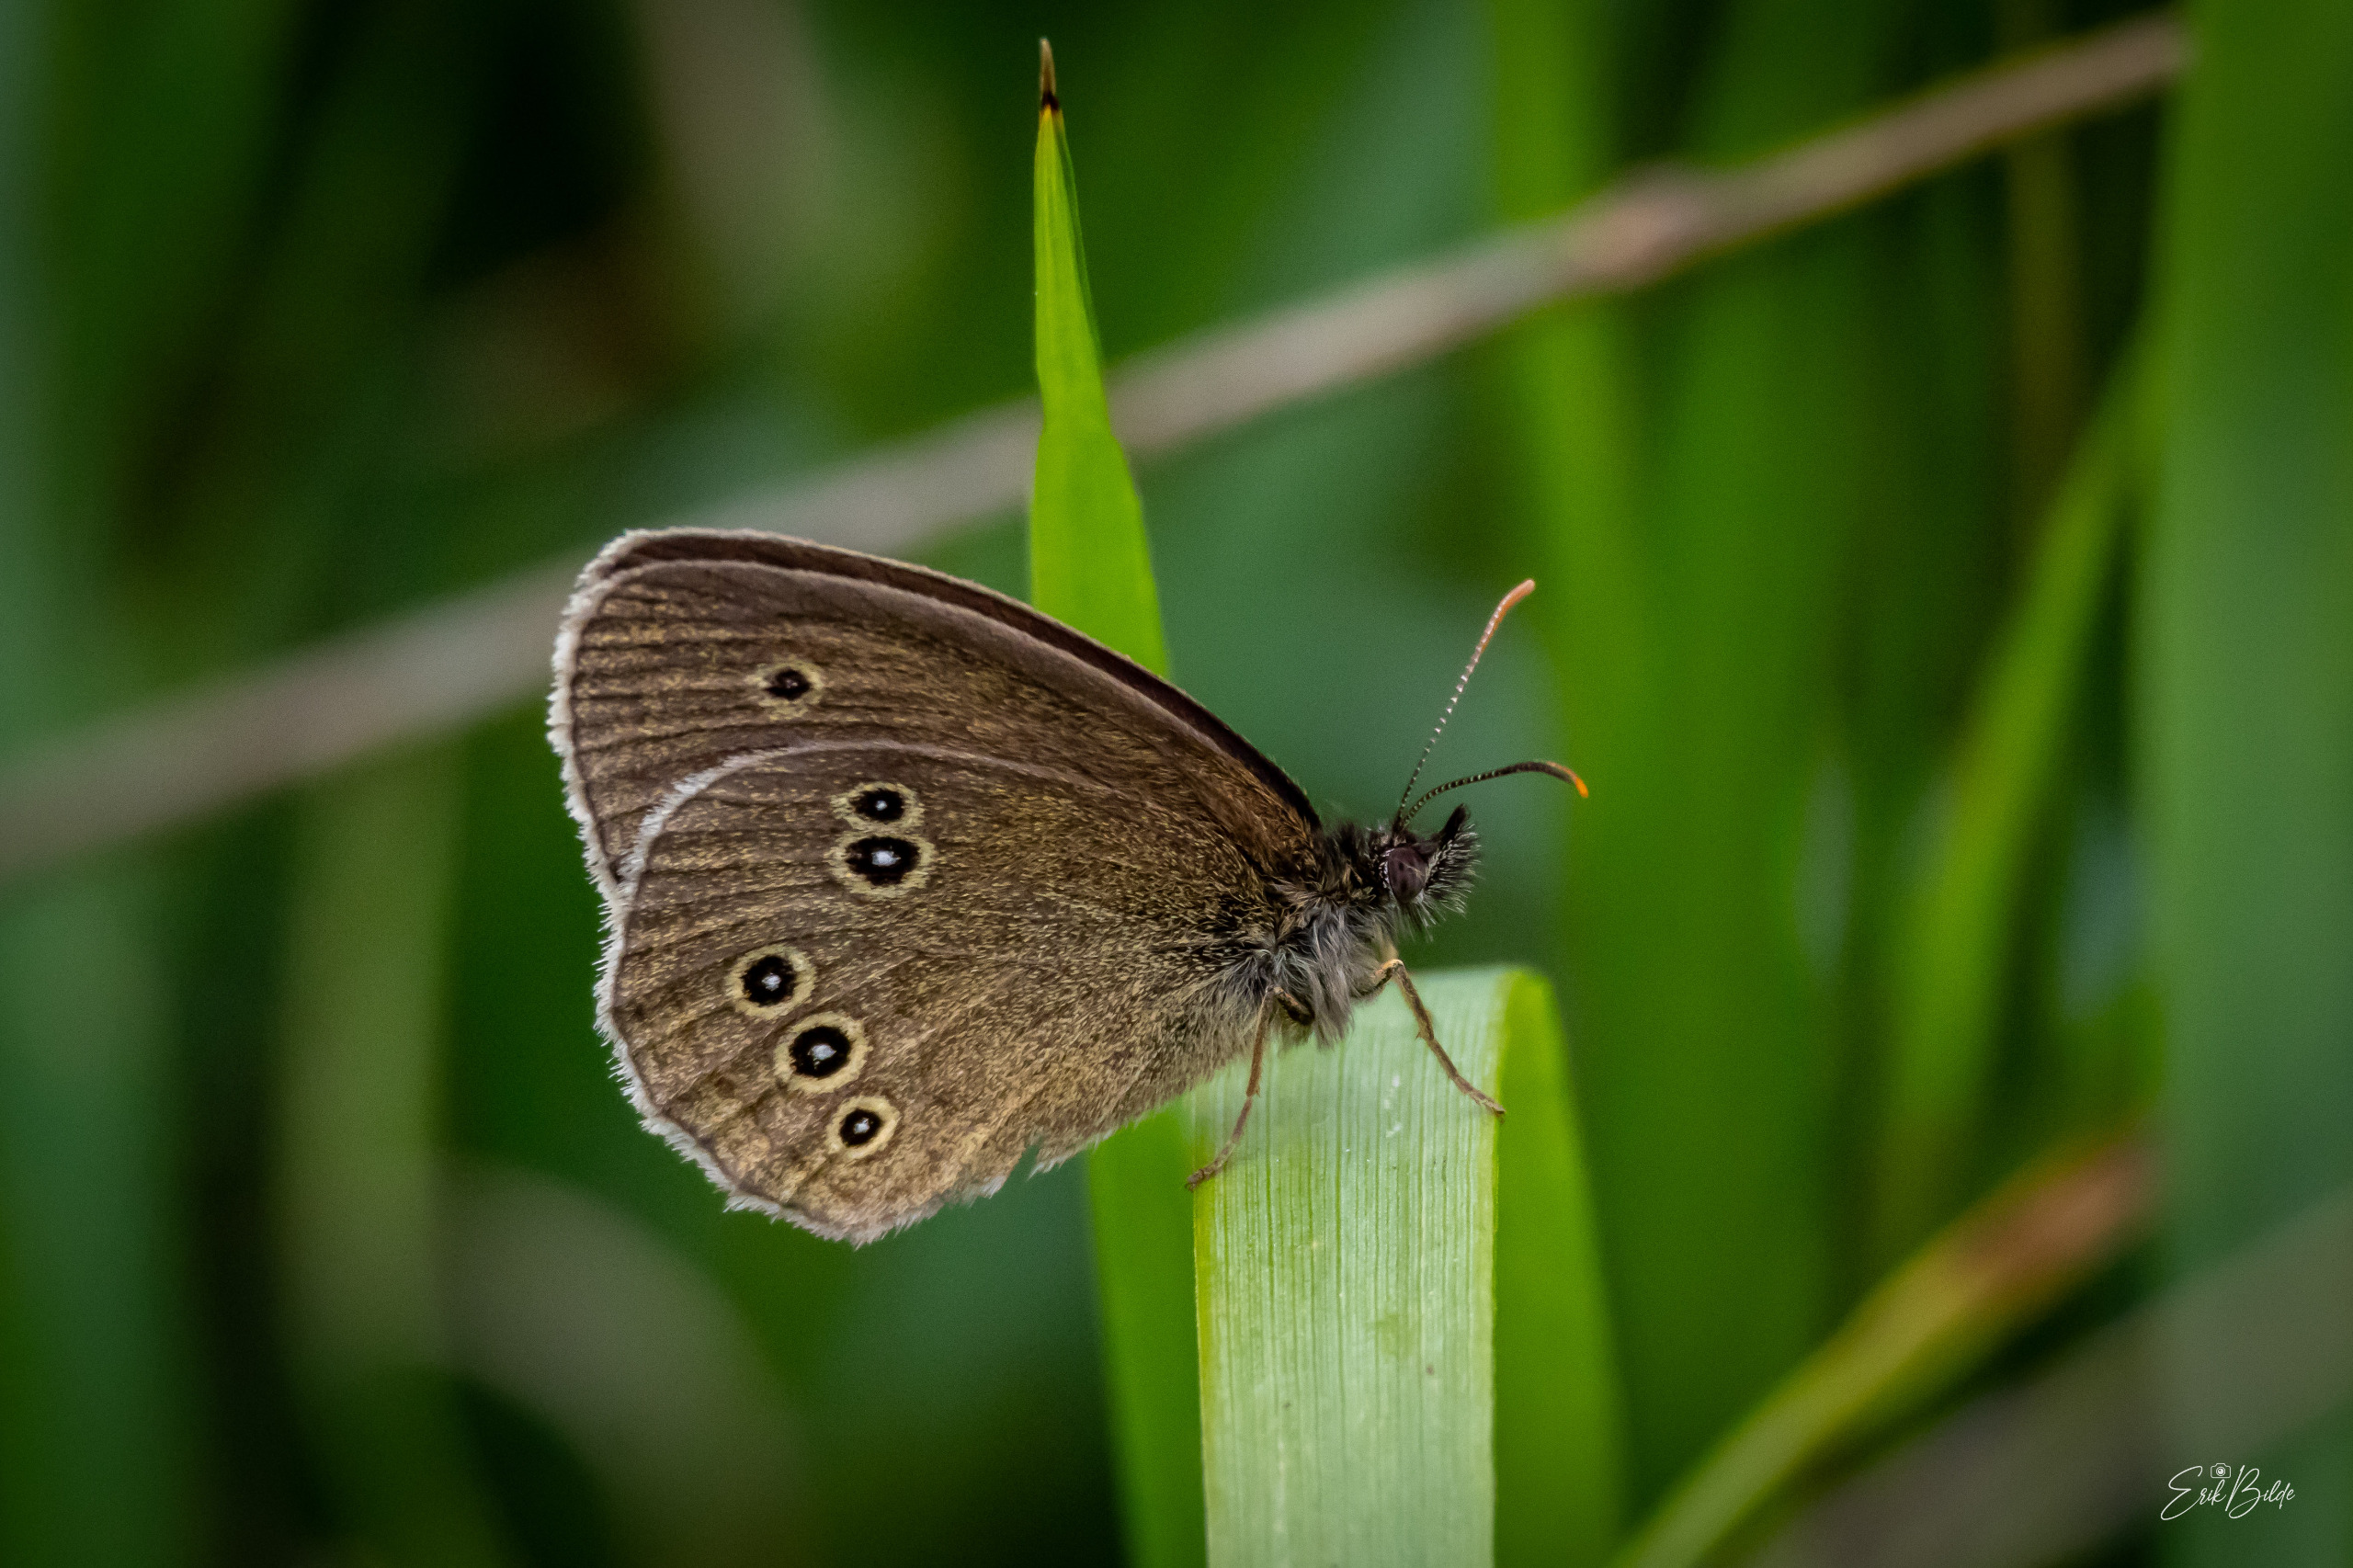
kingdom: Animalia
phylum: Arthropoda
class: Insecta
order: Lepidoptera
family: Nymphalidae
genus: Aphantopus
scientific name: Aphantopus hyperantus
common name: Engrandøje
